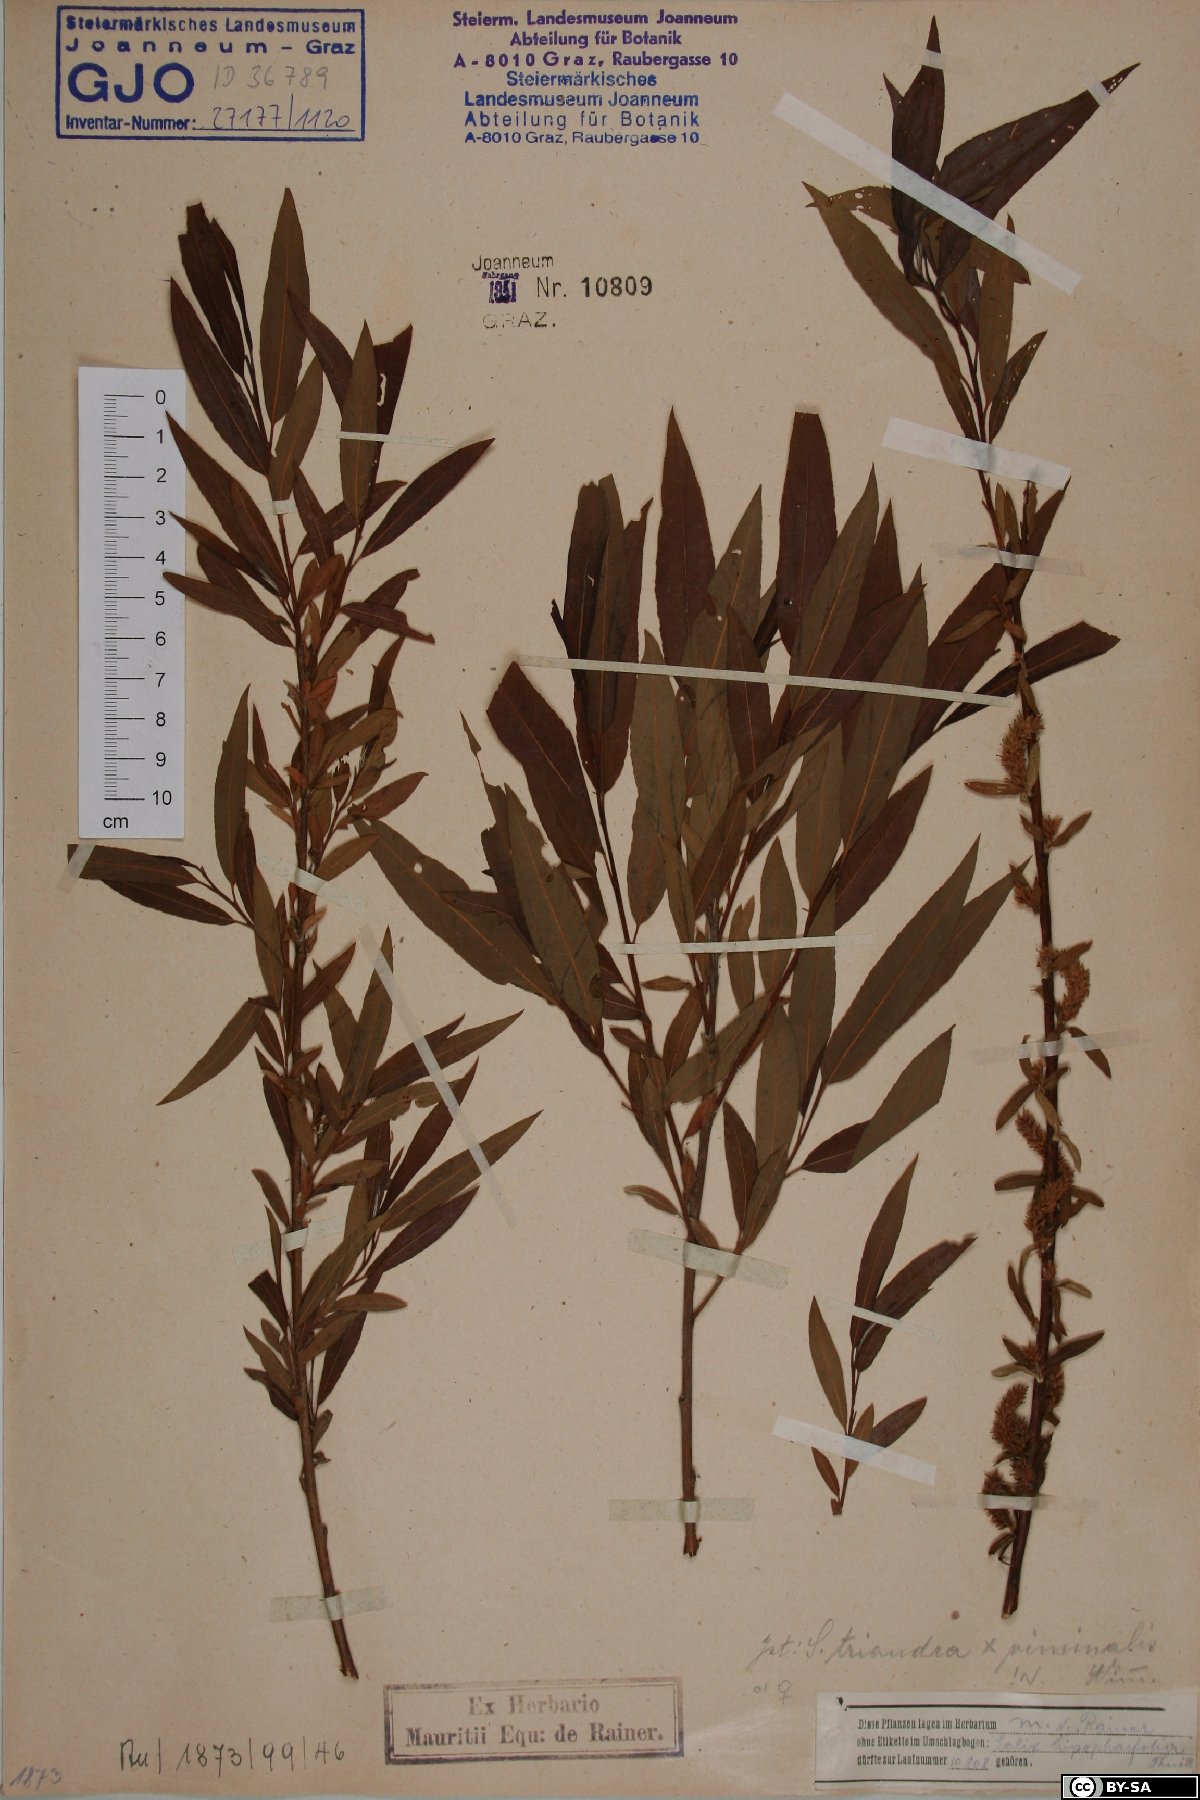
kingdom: Plantae
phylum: Tracheophyta
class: Magnoliopsida
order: Malpighiales
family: Salicaceae
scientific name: Salicaceae
